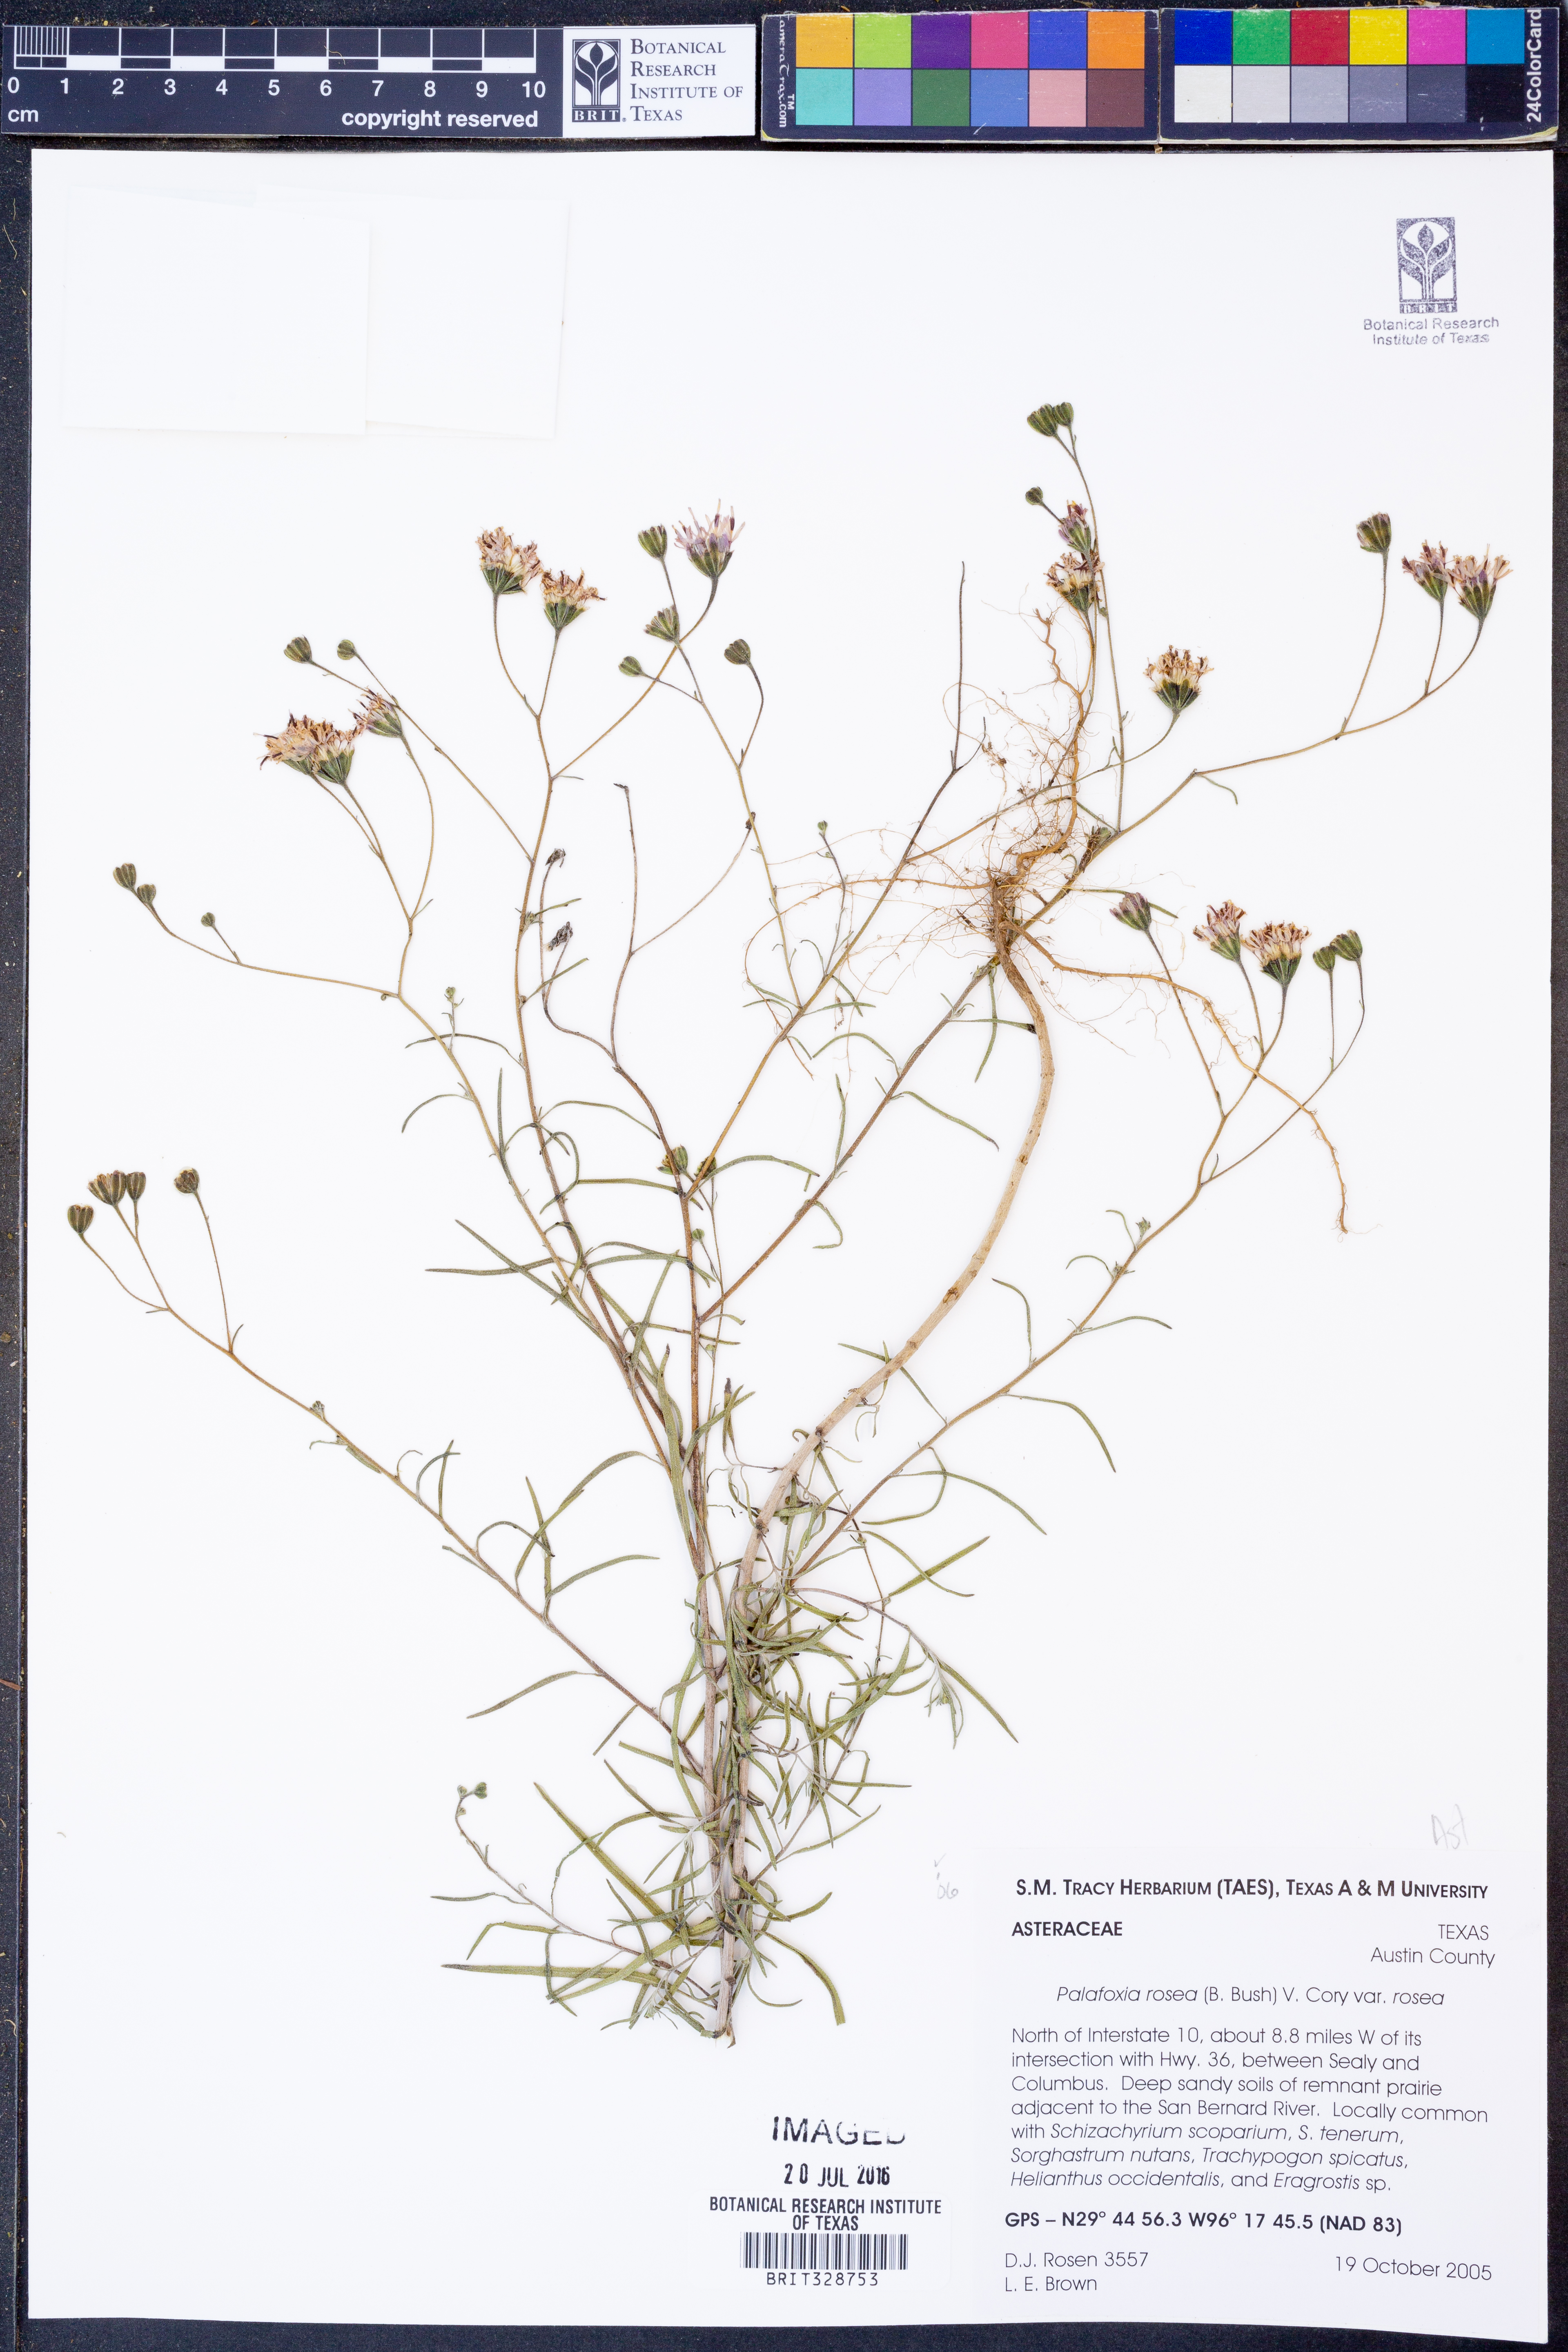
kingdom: Plantae
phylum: Tracheophyta
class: Magnoliopsida
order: Asterales
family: Asteraceae
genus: Palafoxia
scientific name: Palafoxia rosea
